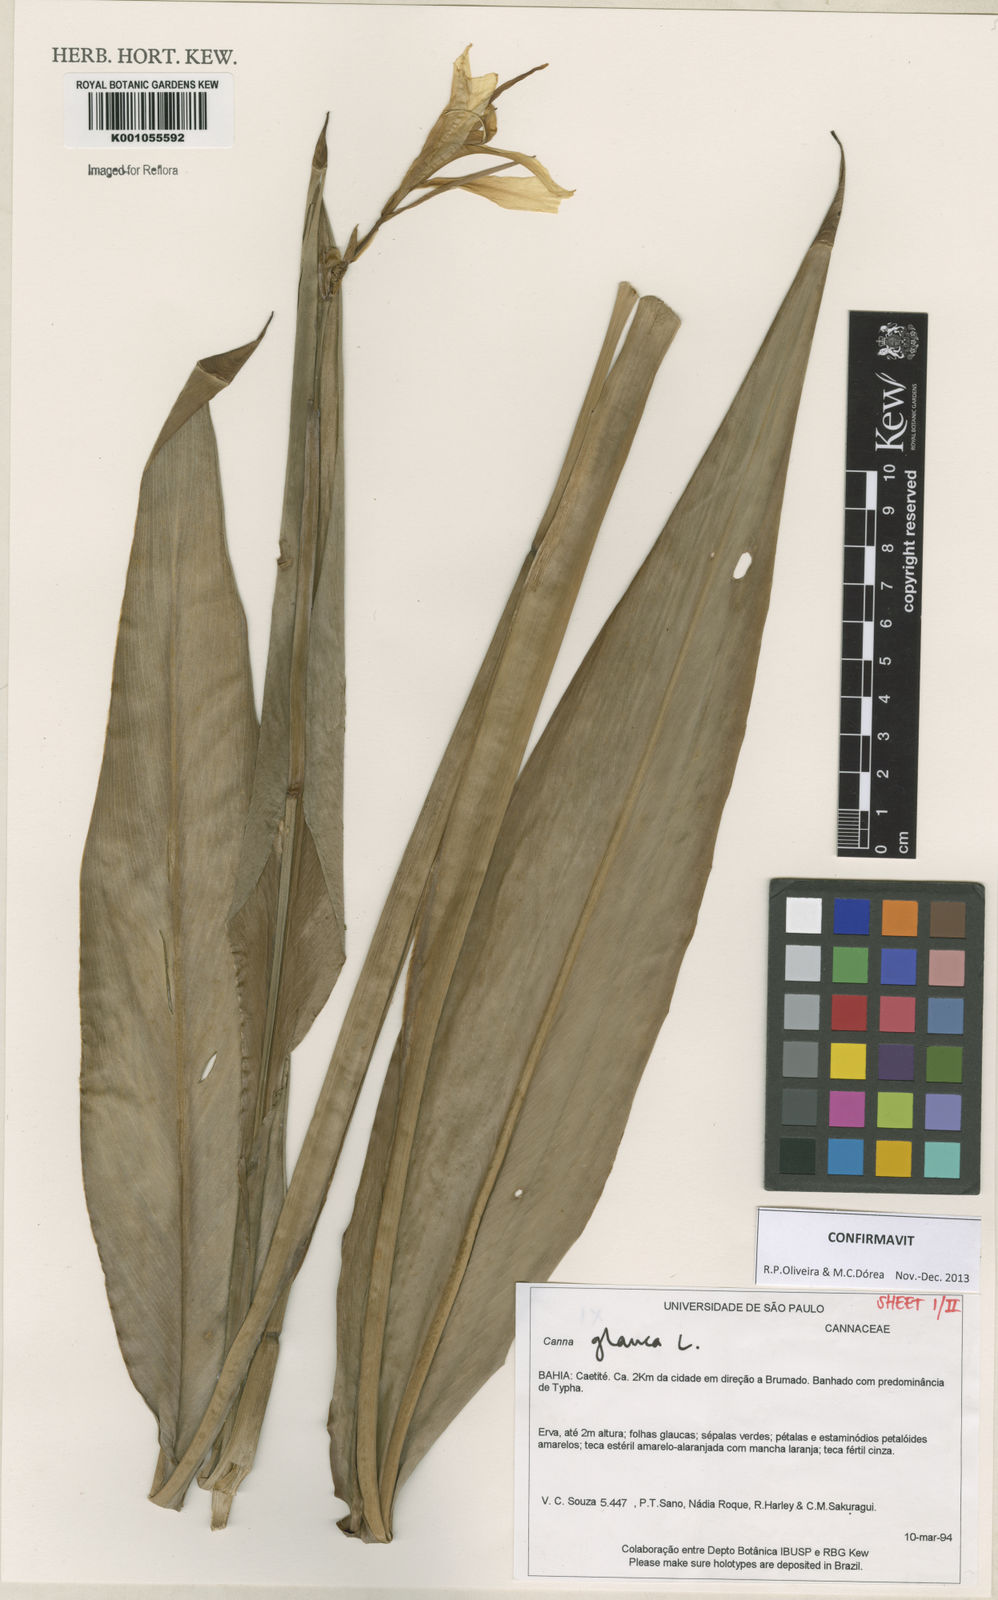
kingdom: Plantae
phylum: Tracheophyta
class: Liliopsida
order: Zingiberales
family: Cannaceae
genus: Canna
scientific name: Canna glauca
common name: Louisiana canna
